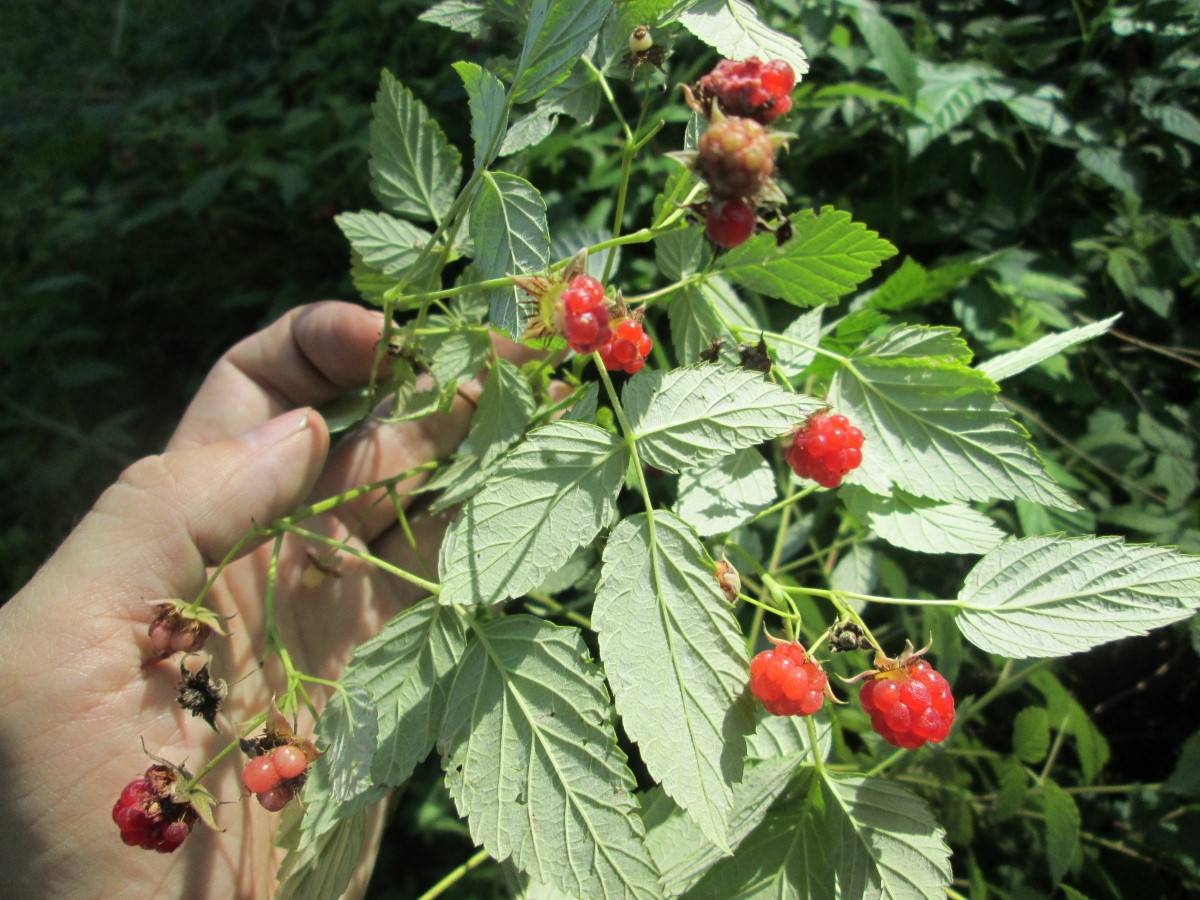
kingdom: Plantae
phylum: Tracheophyta
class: Magnoliopsida
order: Rosales
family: Rosaceae
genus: Rubus
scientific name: Rubus idaeus
